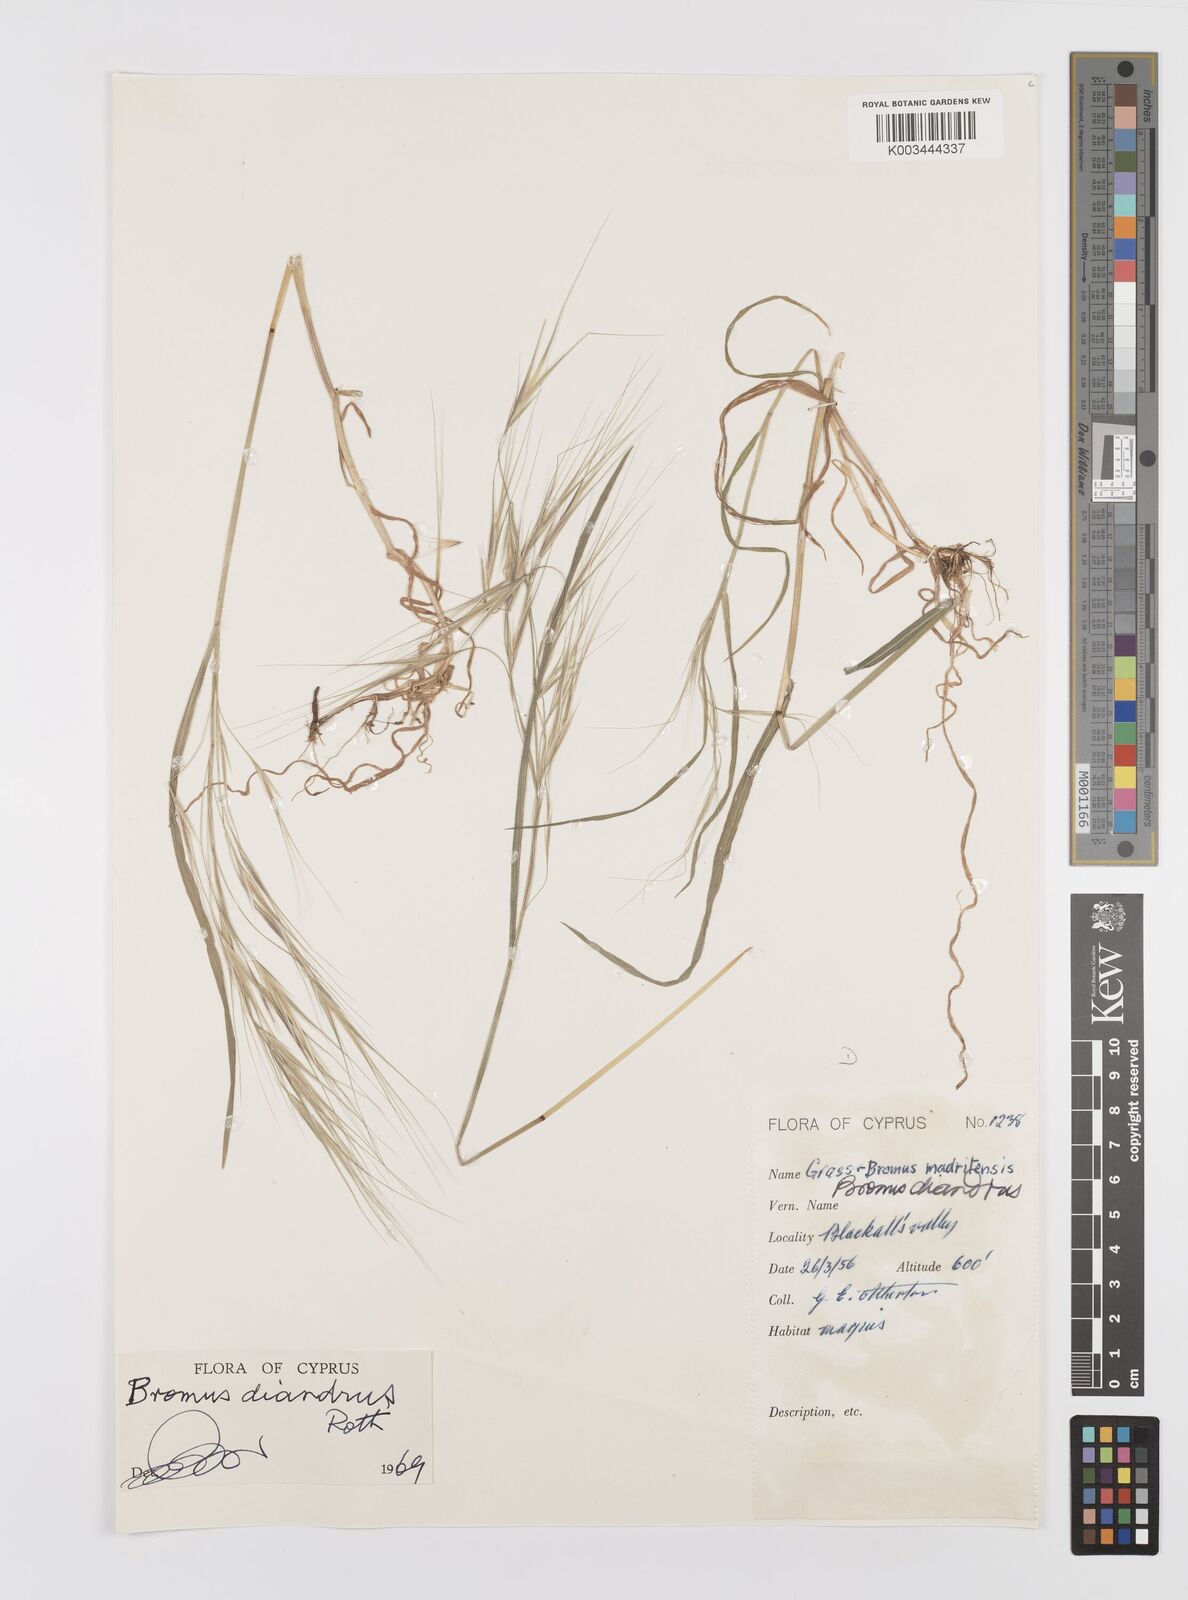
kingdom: Plantae
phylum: Tracheophyta
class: Liliopsida
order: Poales
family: Poaceae
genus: Bromus
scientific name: Bromus diandrus
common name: Ripgut brome
